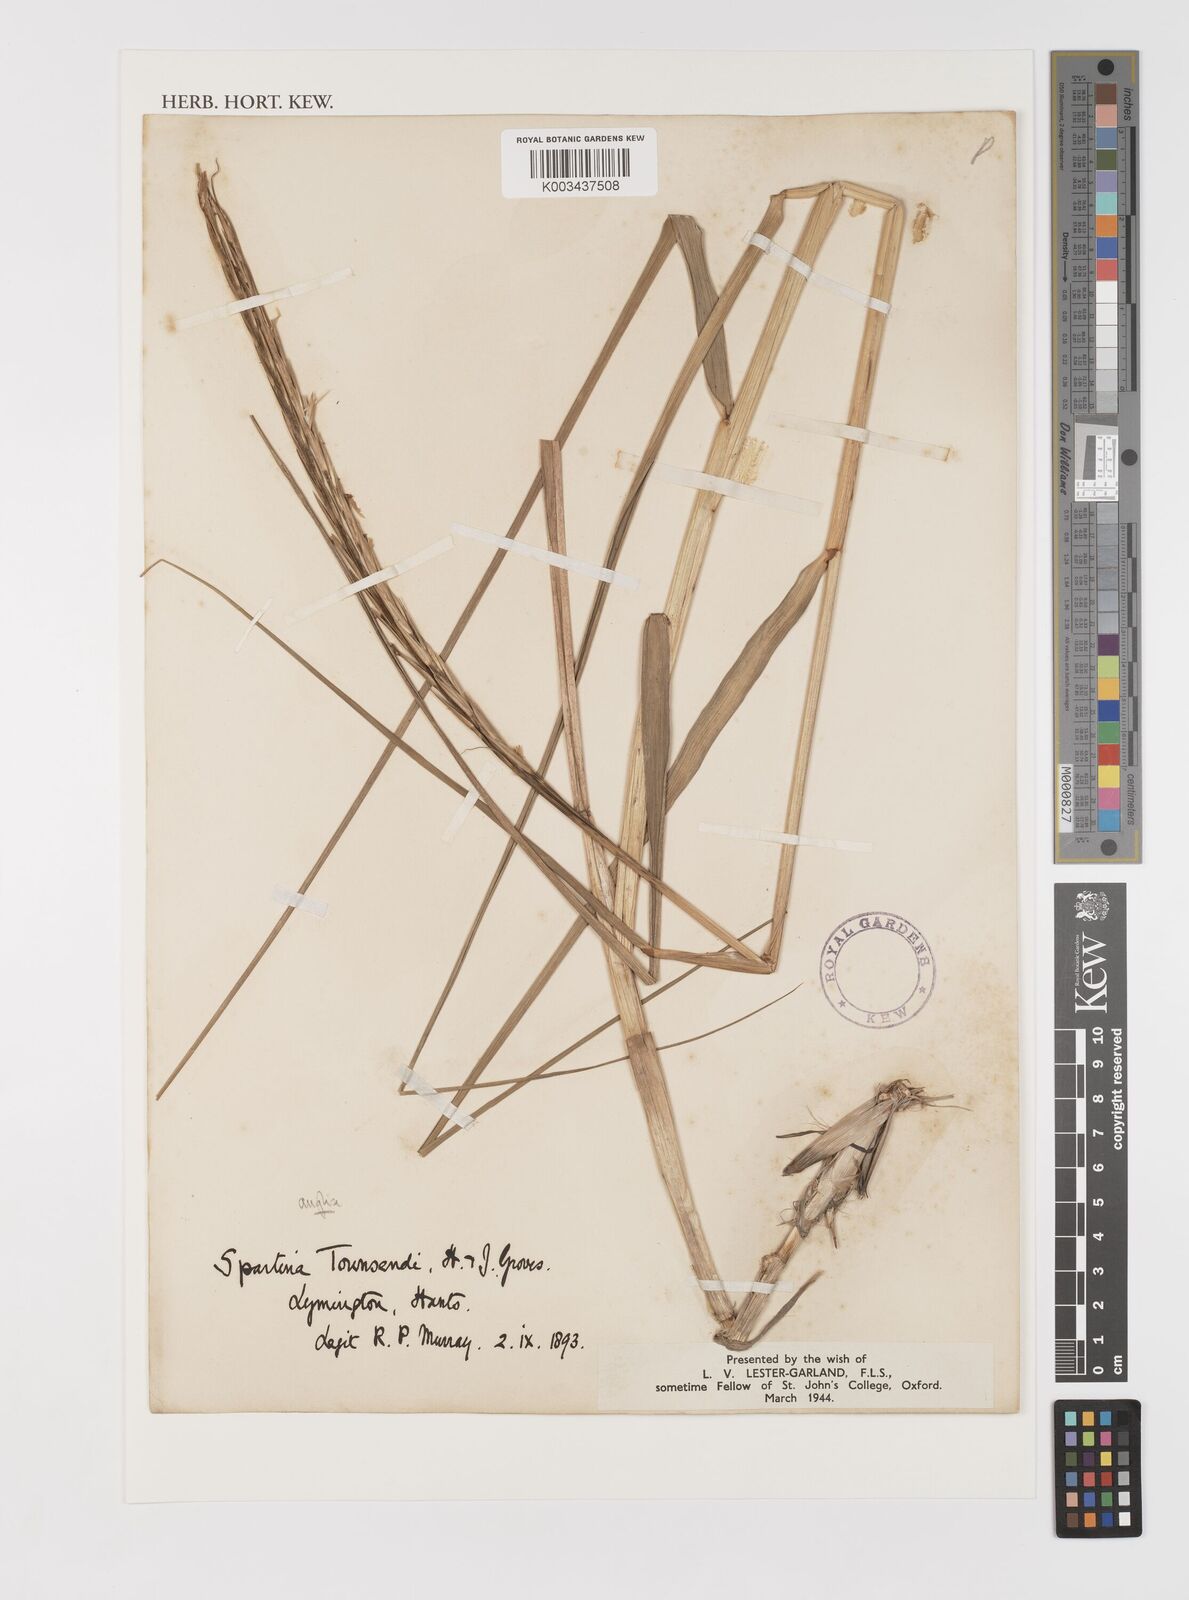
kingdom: Plantae
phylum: Tracheophyta
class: Liliopsida
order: Poales
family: Poaceae
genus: Sporobolus
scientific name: Sporobolus anglicus
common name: English cordgrass
